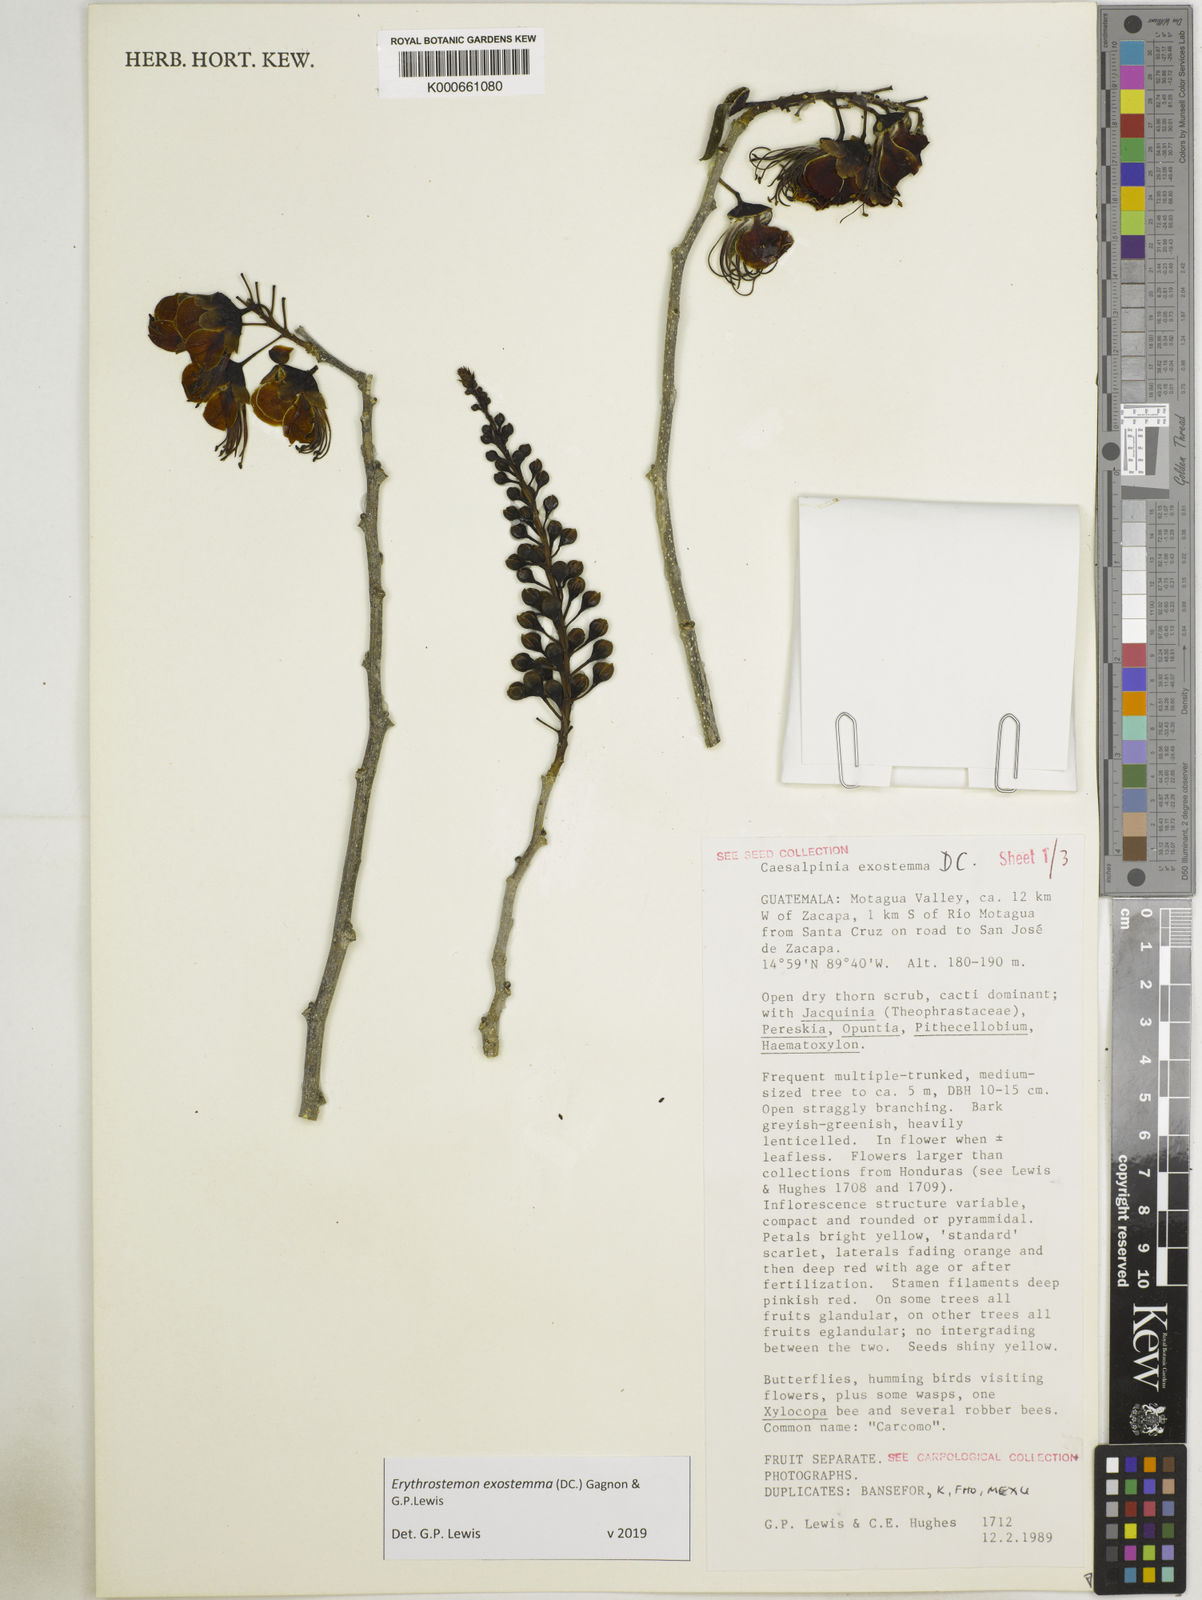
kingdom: Plantae
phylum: Tracheophyta
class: Magnoliopsida
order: Fabales
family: Fabaceae
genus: Erythrostemon
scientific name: Erythrostemon exostemma
